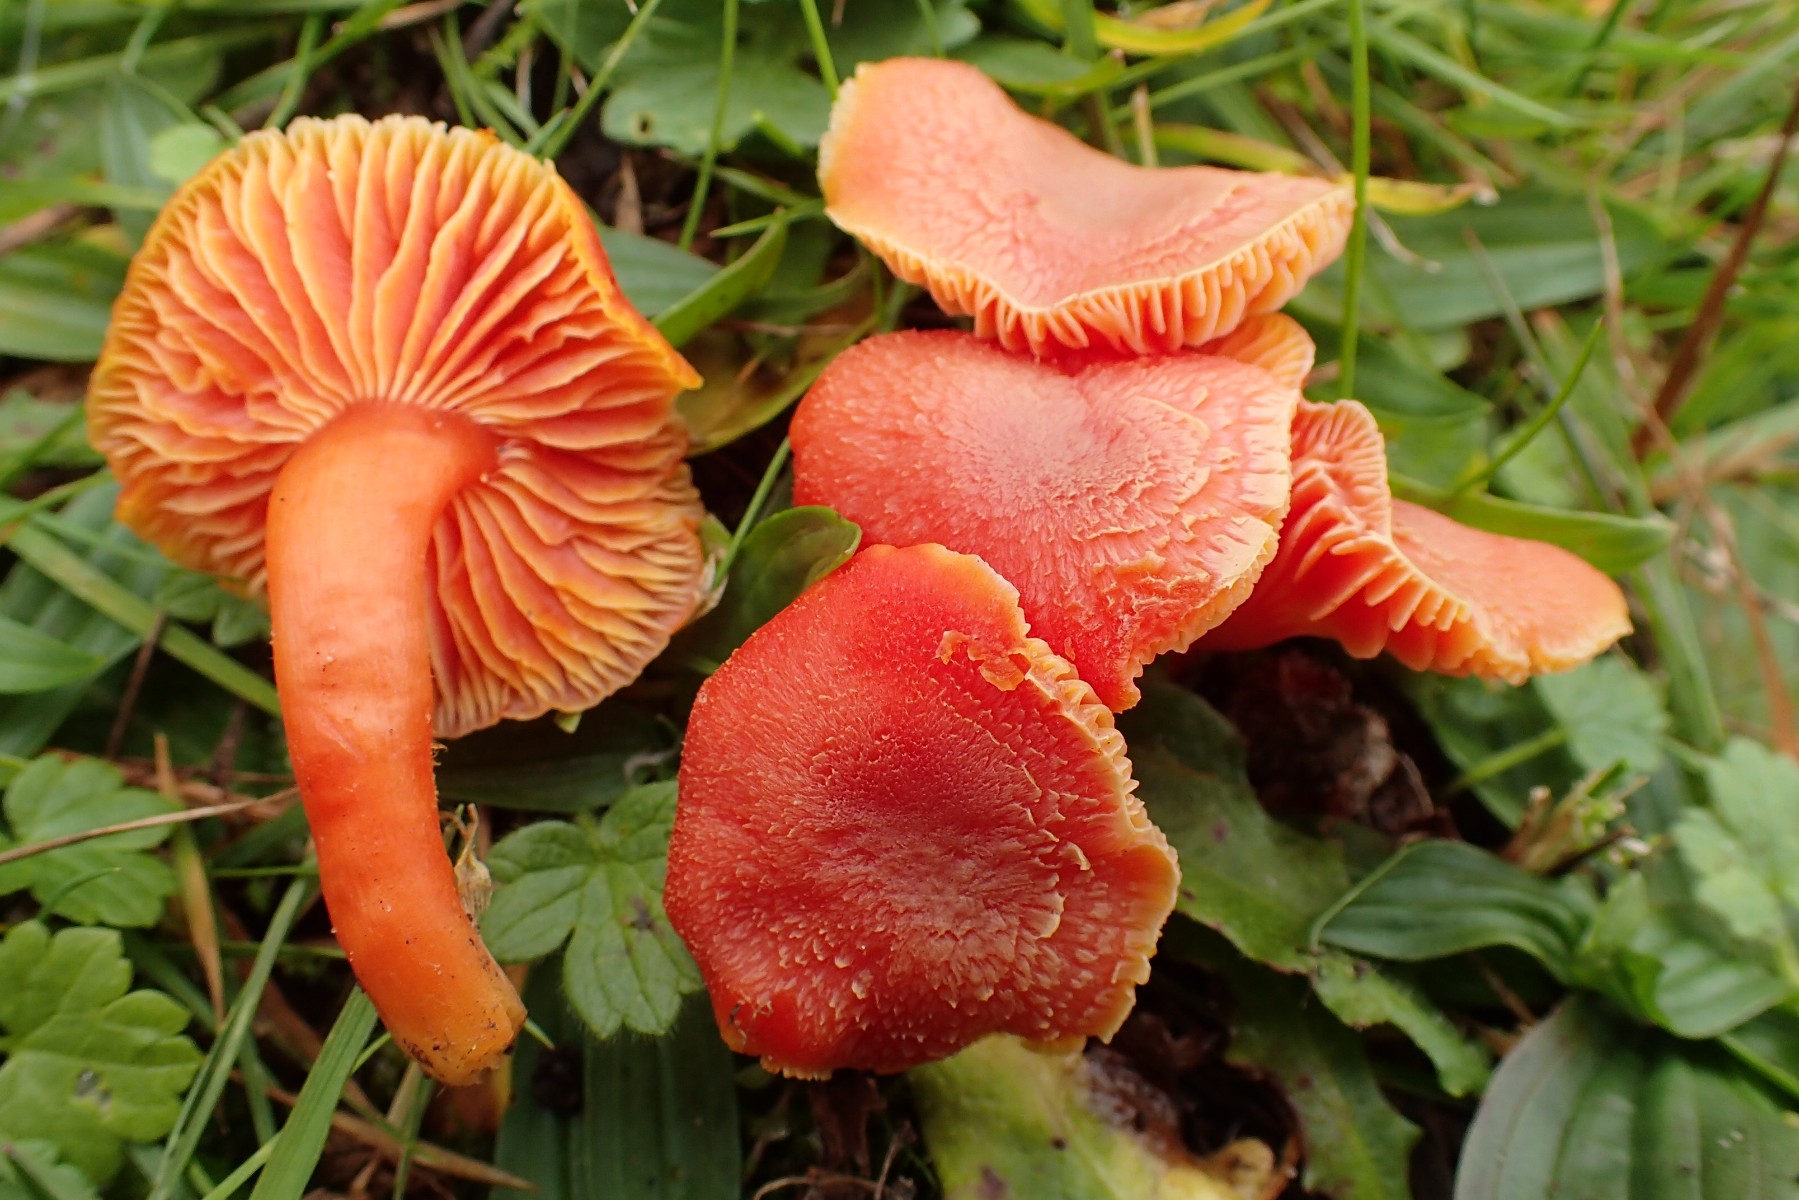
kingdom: Fungi
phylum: Basidiomycota
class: Agaricomycetes
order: Agaricales
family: Hygrophoraceae
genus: Hygrocybe
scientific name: Hygrocybe miniata
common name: mønje-vokshat
